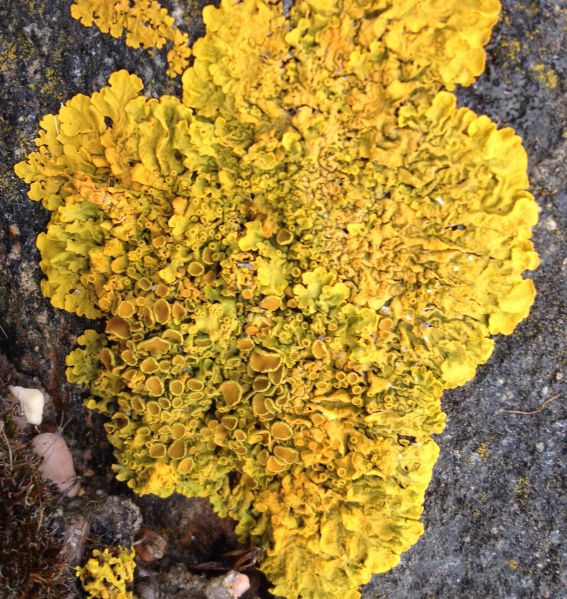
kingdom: Fungi
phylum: Ascomycota
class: Lecanoromycetes
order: Teloschistales
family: Teloschistaceae
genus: Xanthoria
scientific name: Xanthoria parietina
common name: almindelig væggelav
